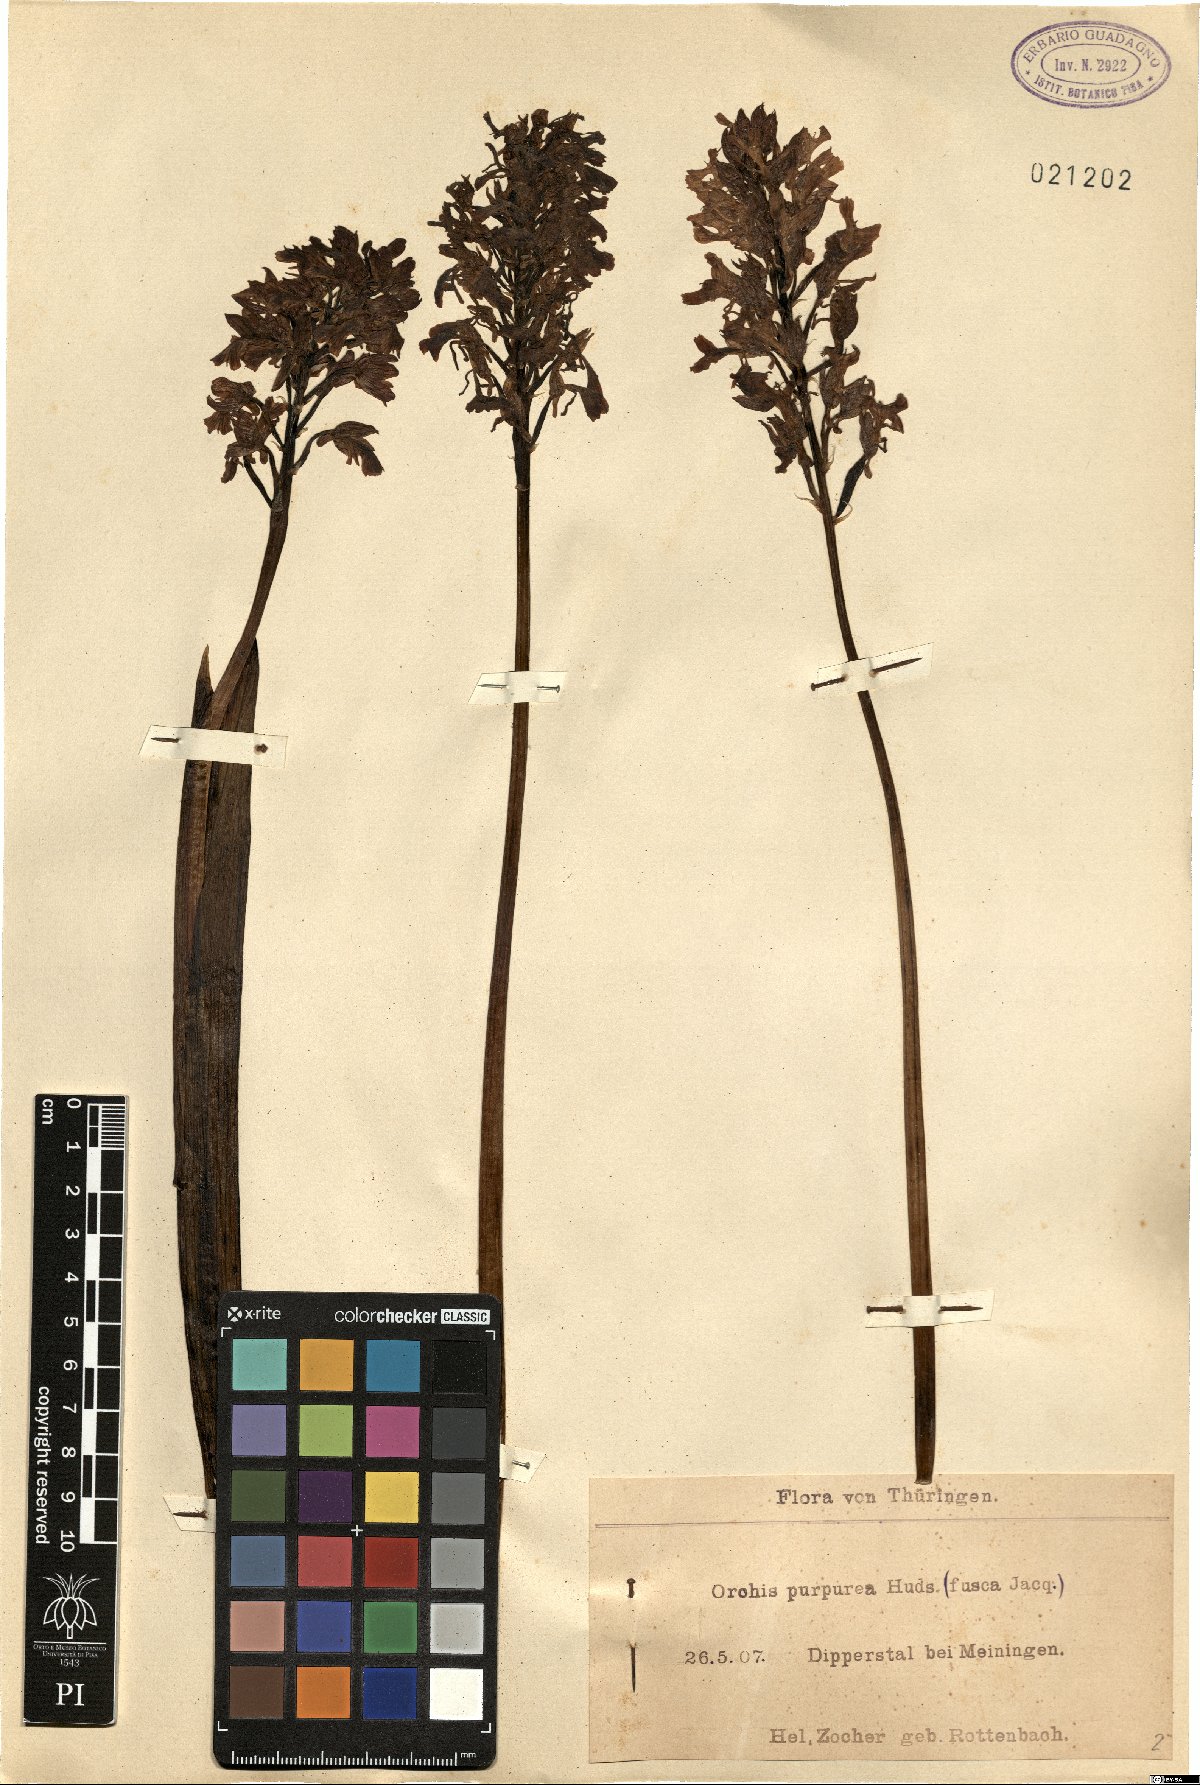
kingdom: Plantae
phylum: Tracheophyta
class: Liliopsida
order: Asparagales
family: Orchidaceae
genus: Orchis
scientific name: Orchis purpurea
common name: Lady orchid
